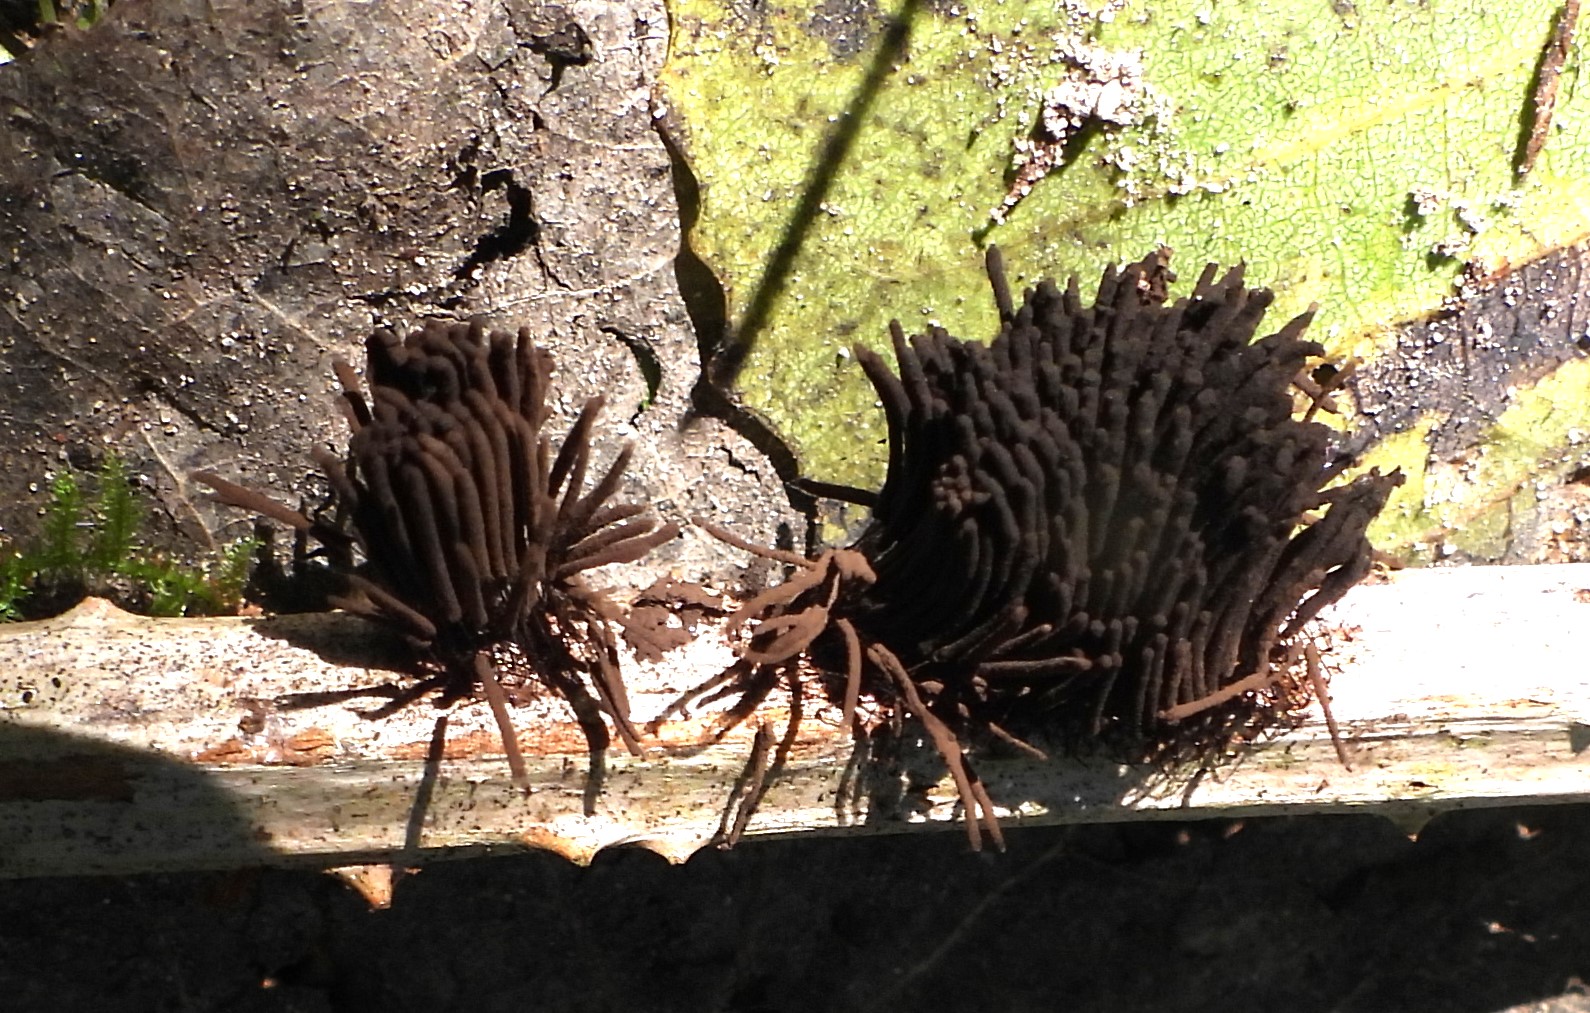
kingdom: Protozoa
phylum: Mycetozoa
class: Myxomycetes
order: Stemonitidales
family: Stemonitidaceae
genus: Stemonitis
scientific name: Stemonitis
